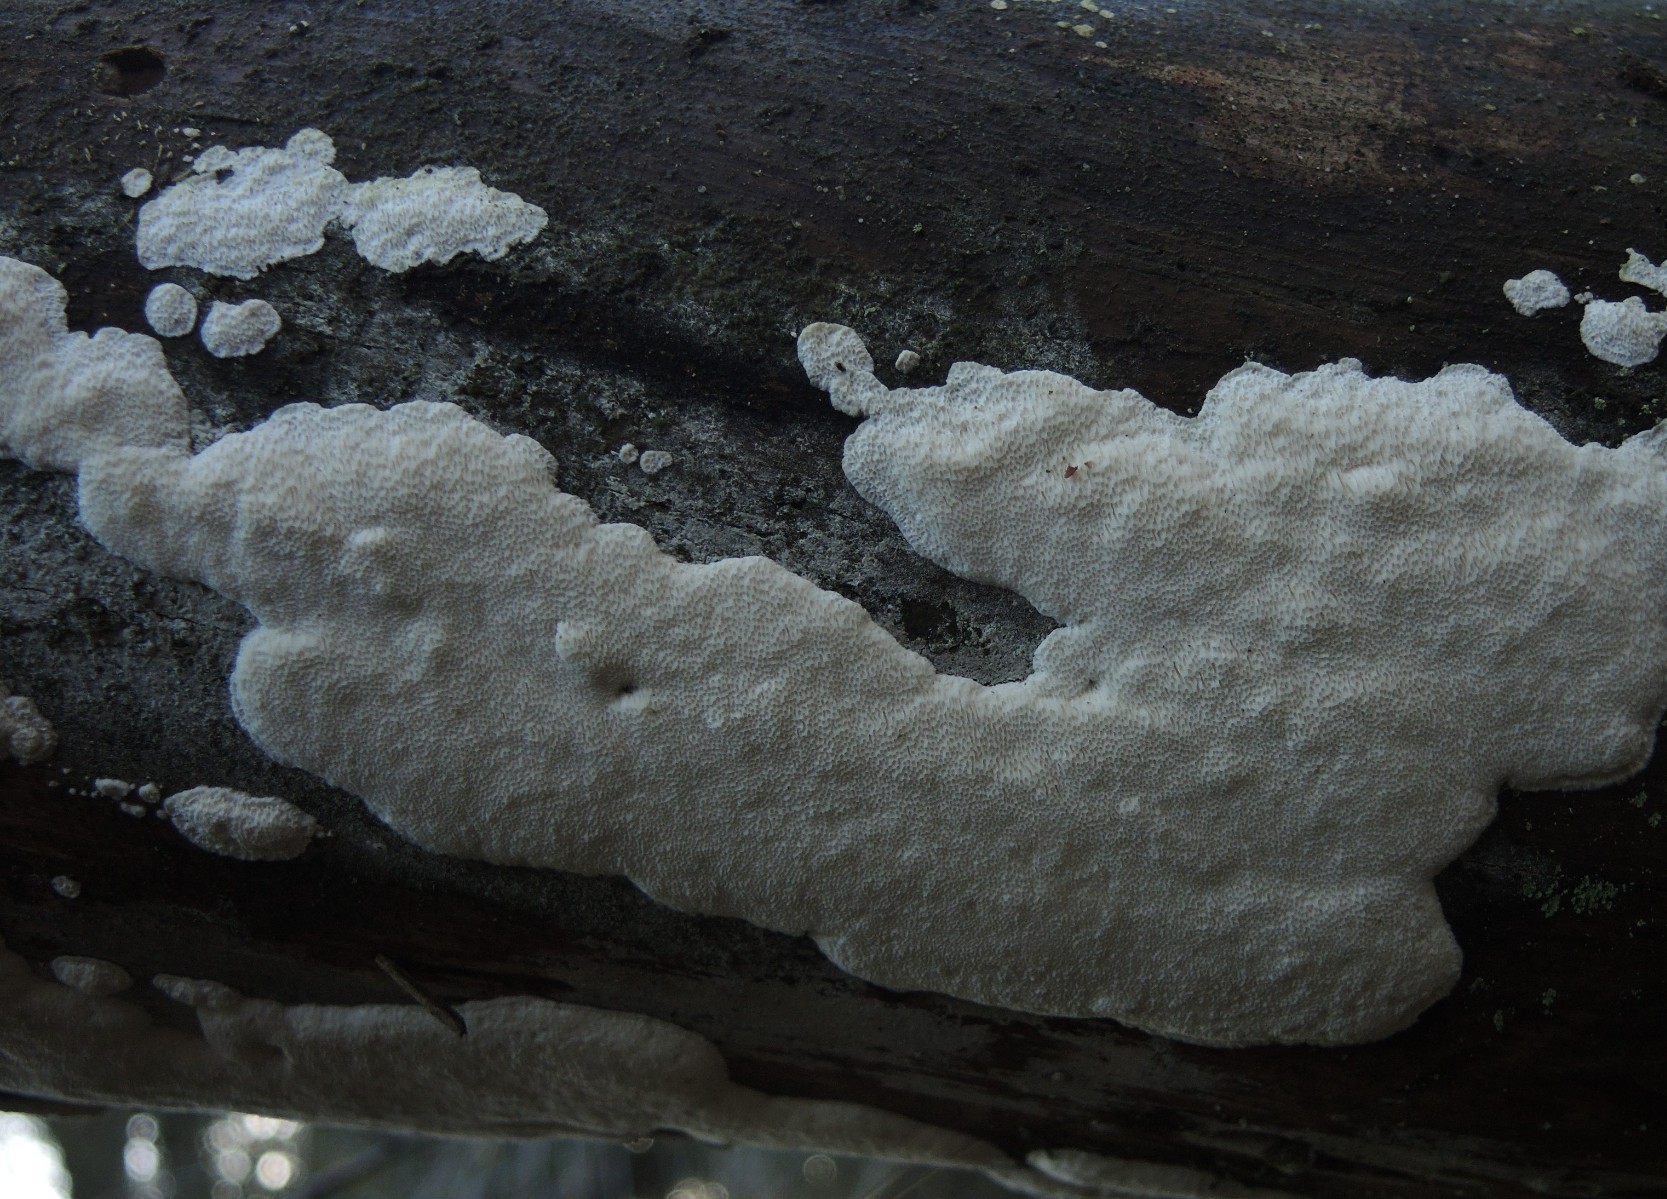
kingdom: Fungi
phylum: Basidiomycota
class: Agaricomycetes
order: Polyporales
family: Gelatoporiaceae
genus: Cinereomyces
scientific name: Cinereomyces lindbladii
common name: almindelig gråporesvamp
